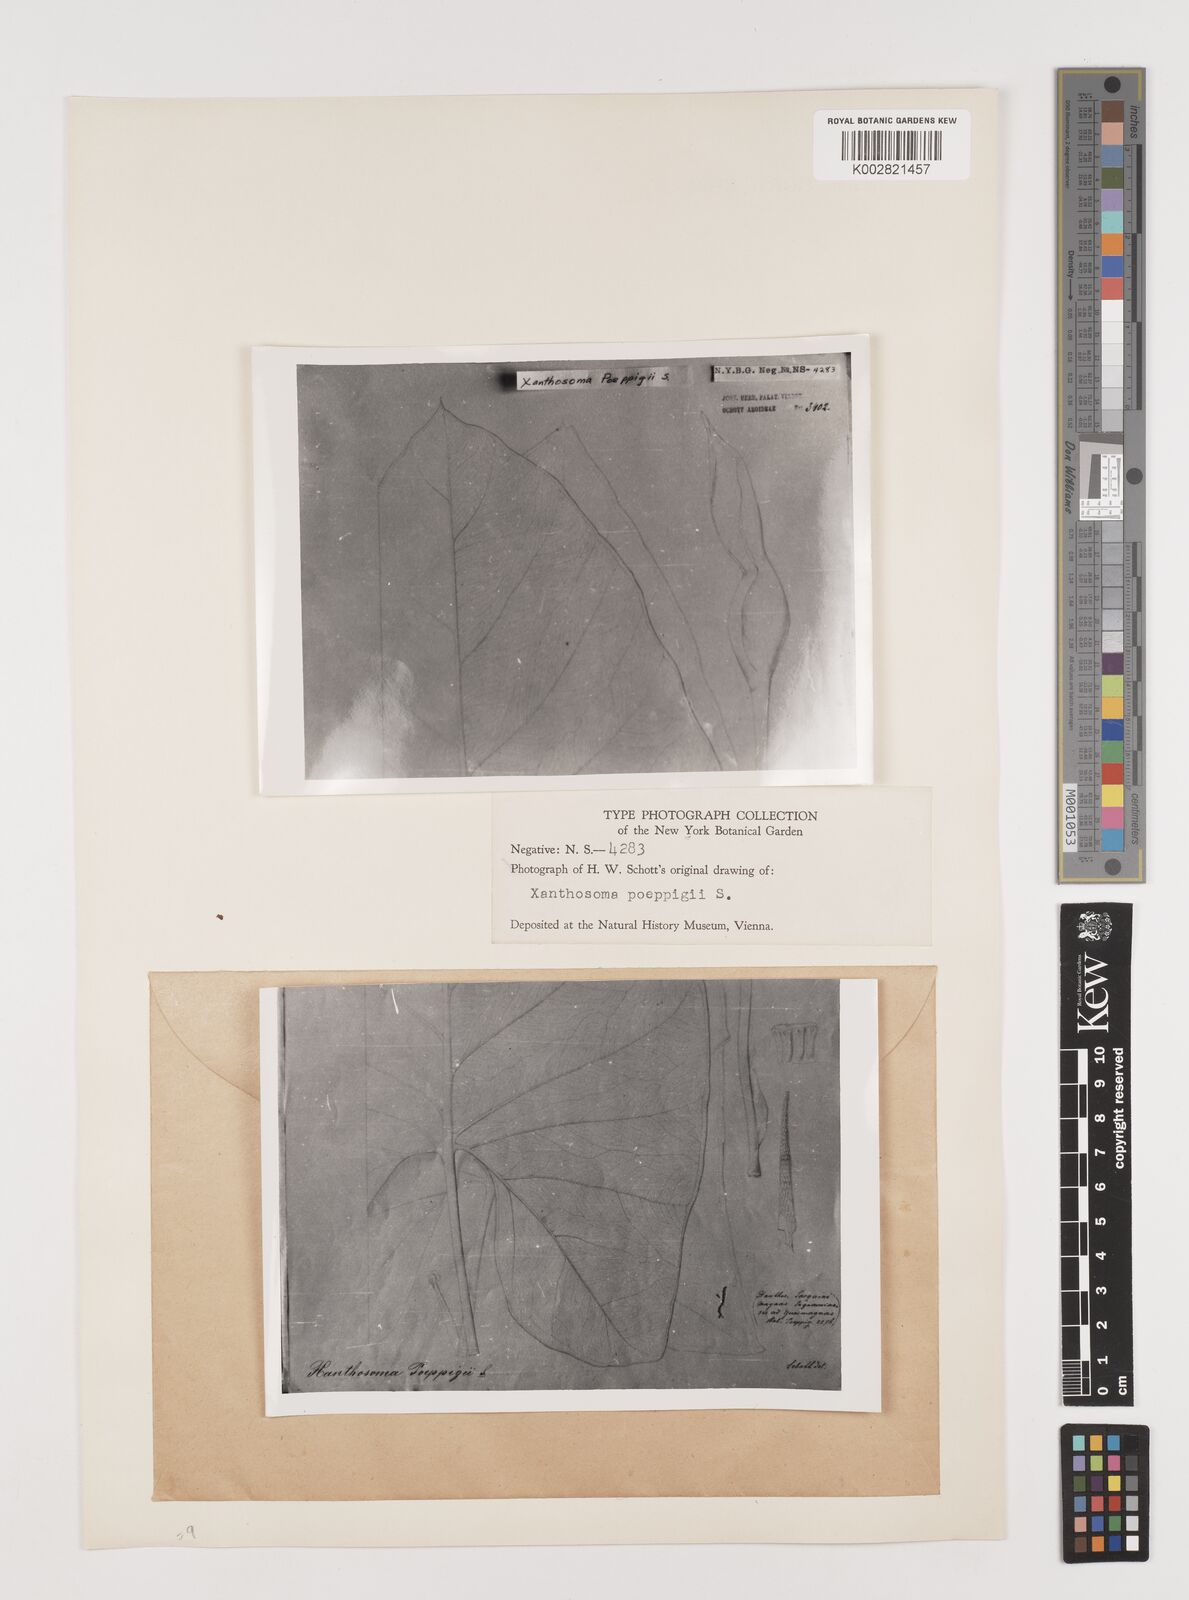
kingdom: Plantae
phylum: Tracheophyta
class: Liliopsida
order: Alismatales
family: Araceae
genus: Xanthosoma
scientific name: Xanthosoma poeppigii
